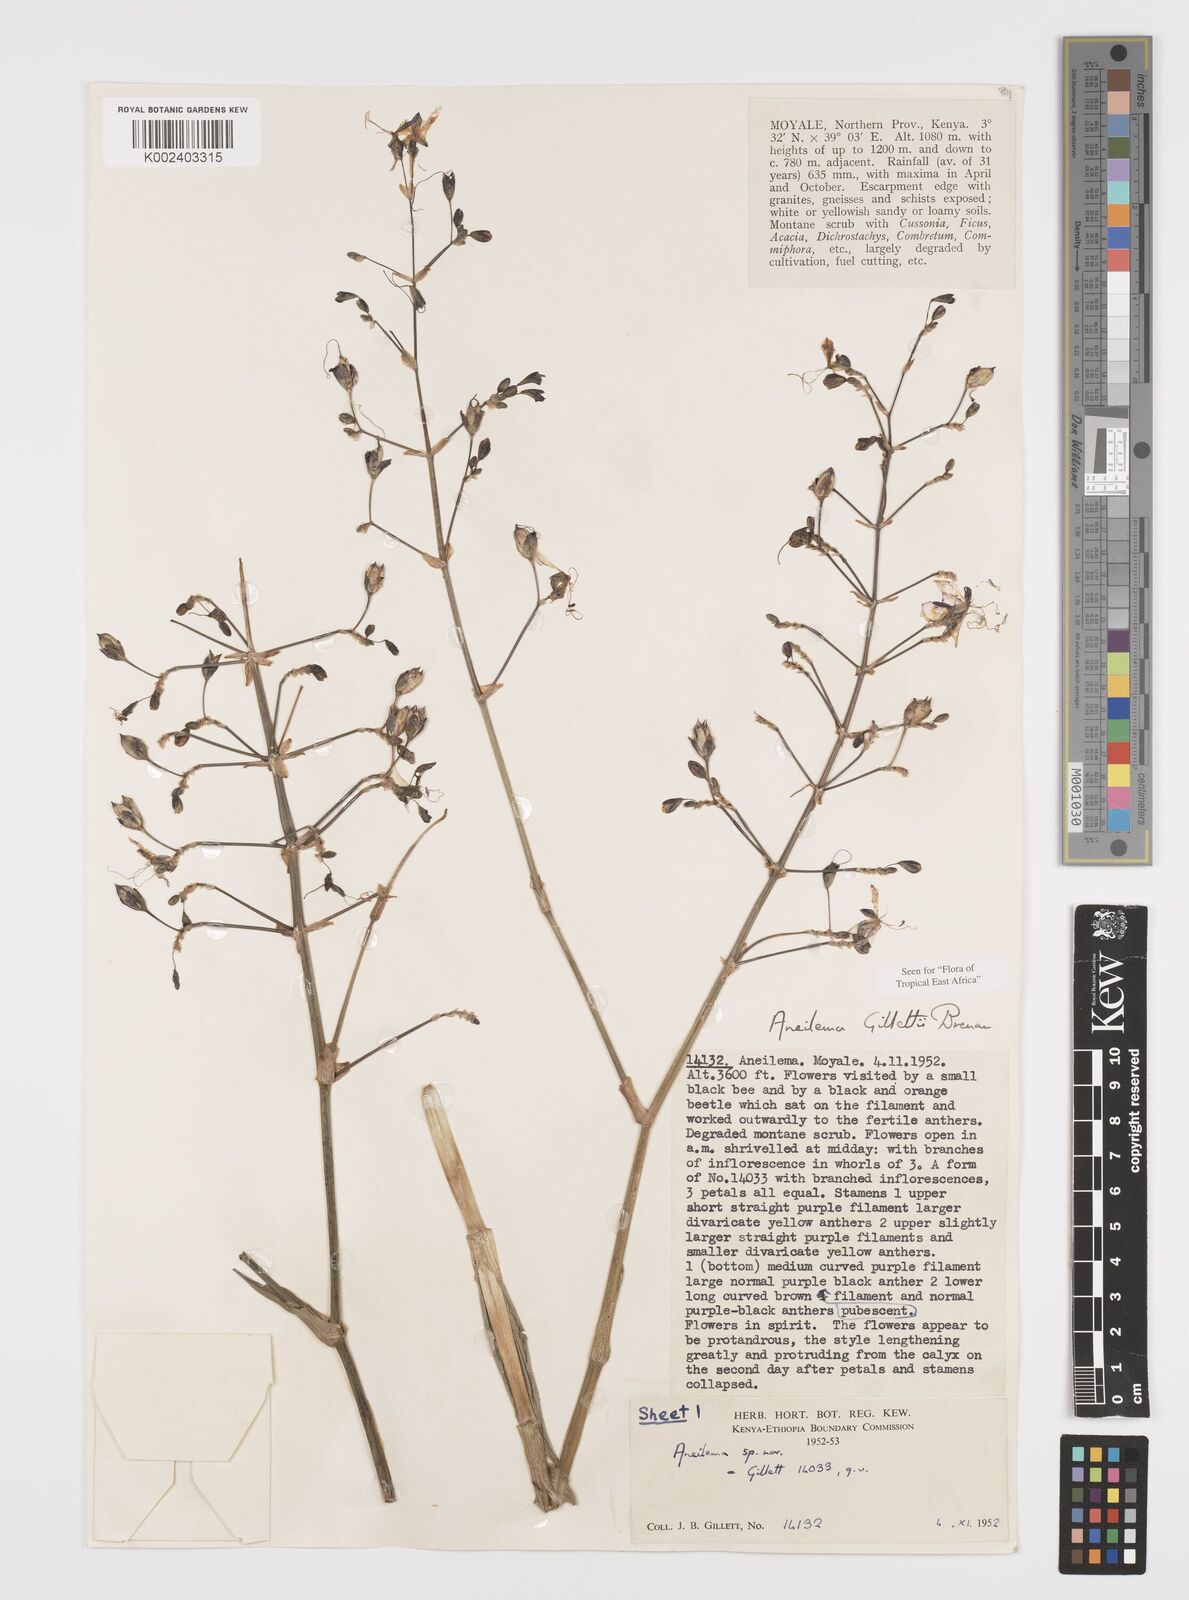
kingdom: Plantae
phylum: Tracheophyta
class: Liliopsida
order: Commelinales
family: Commelinaceae
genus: Aneilema
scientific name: Aneilema gillettii
